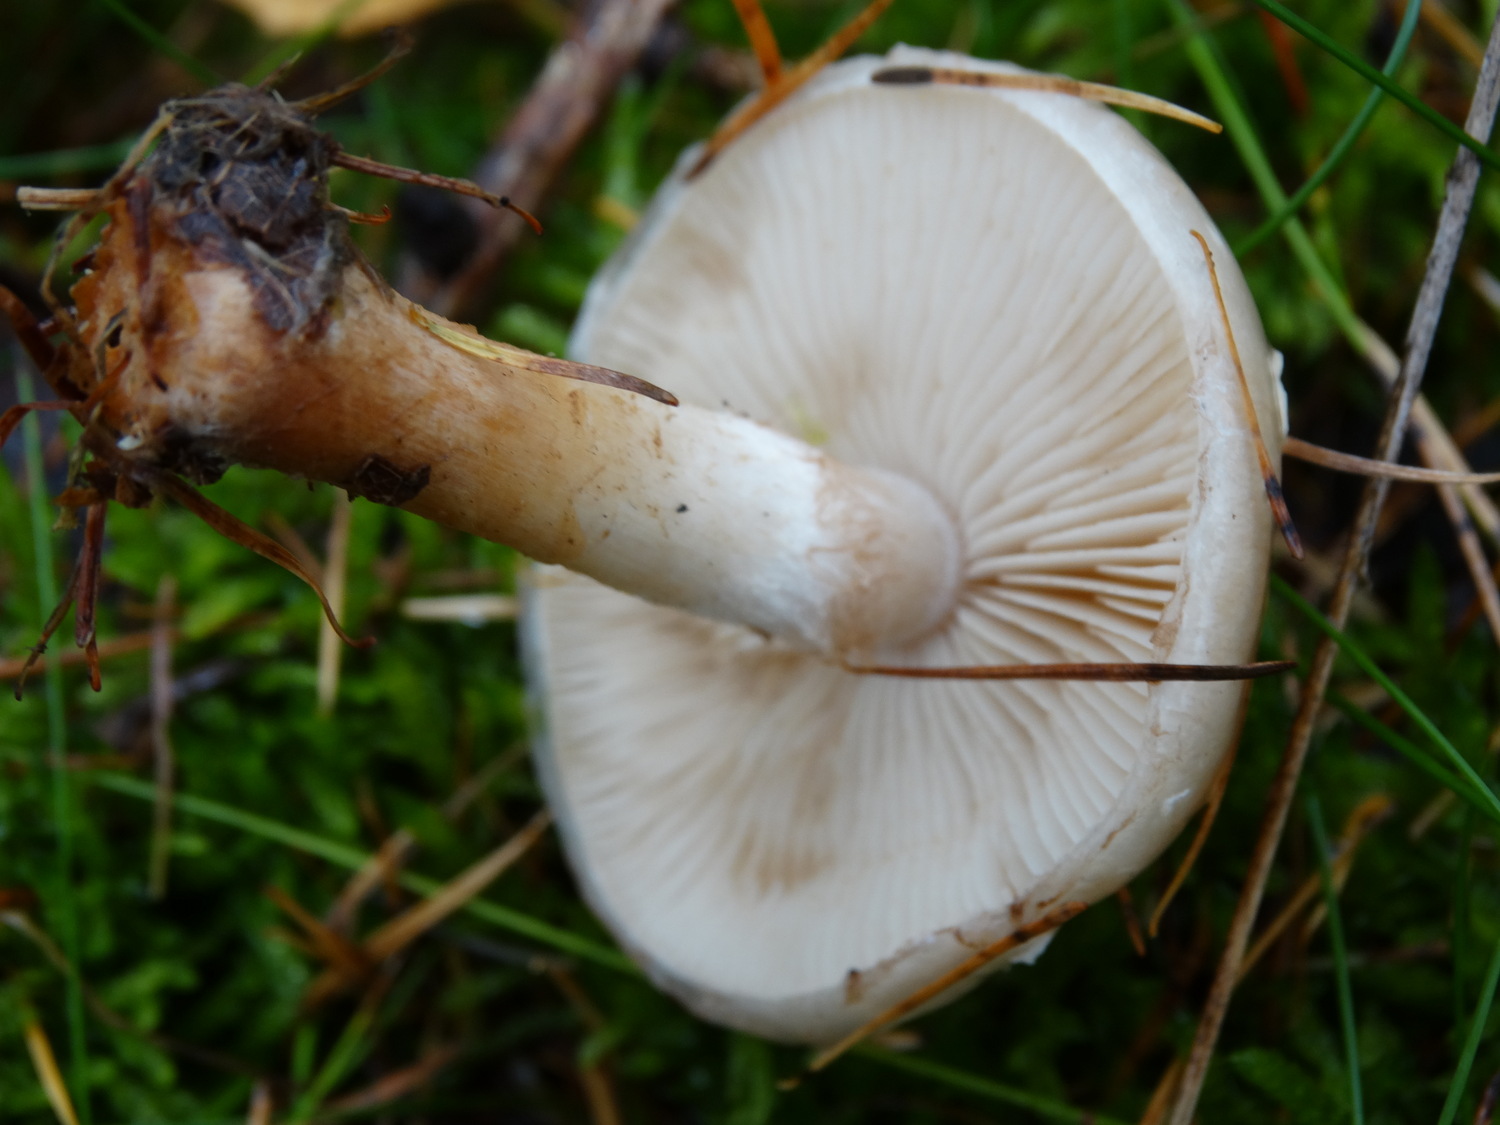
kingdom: Fungi
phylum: Basidiomycota
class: Agaricomycetes
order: Agaricales
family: Strophariaceae
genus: Pholiota
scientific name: Pholiota lenta
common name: løv-skælhat
